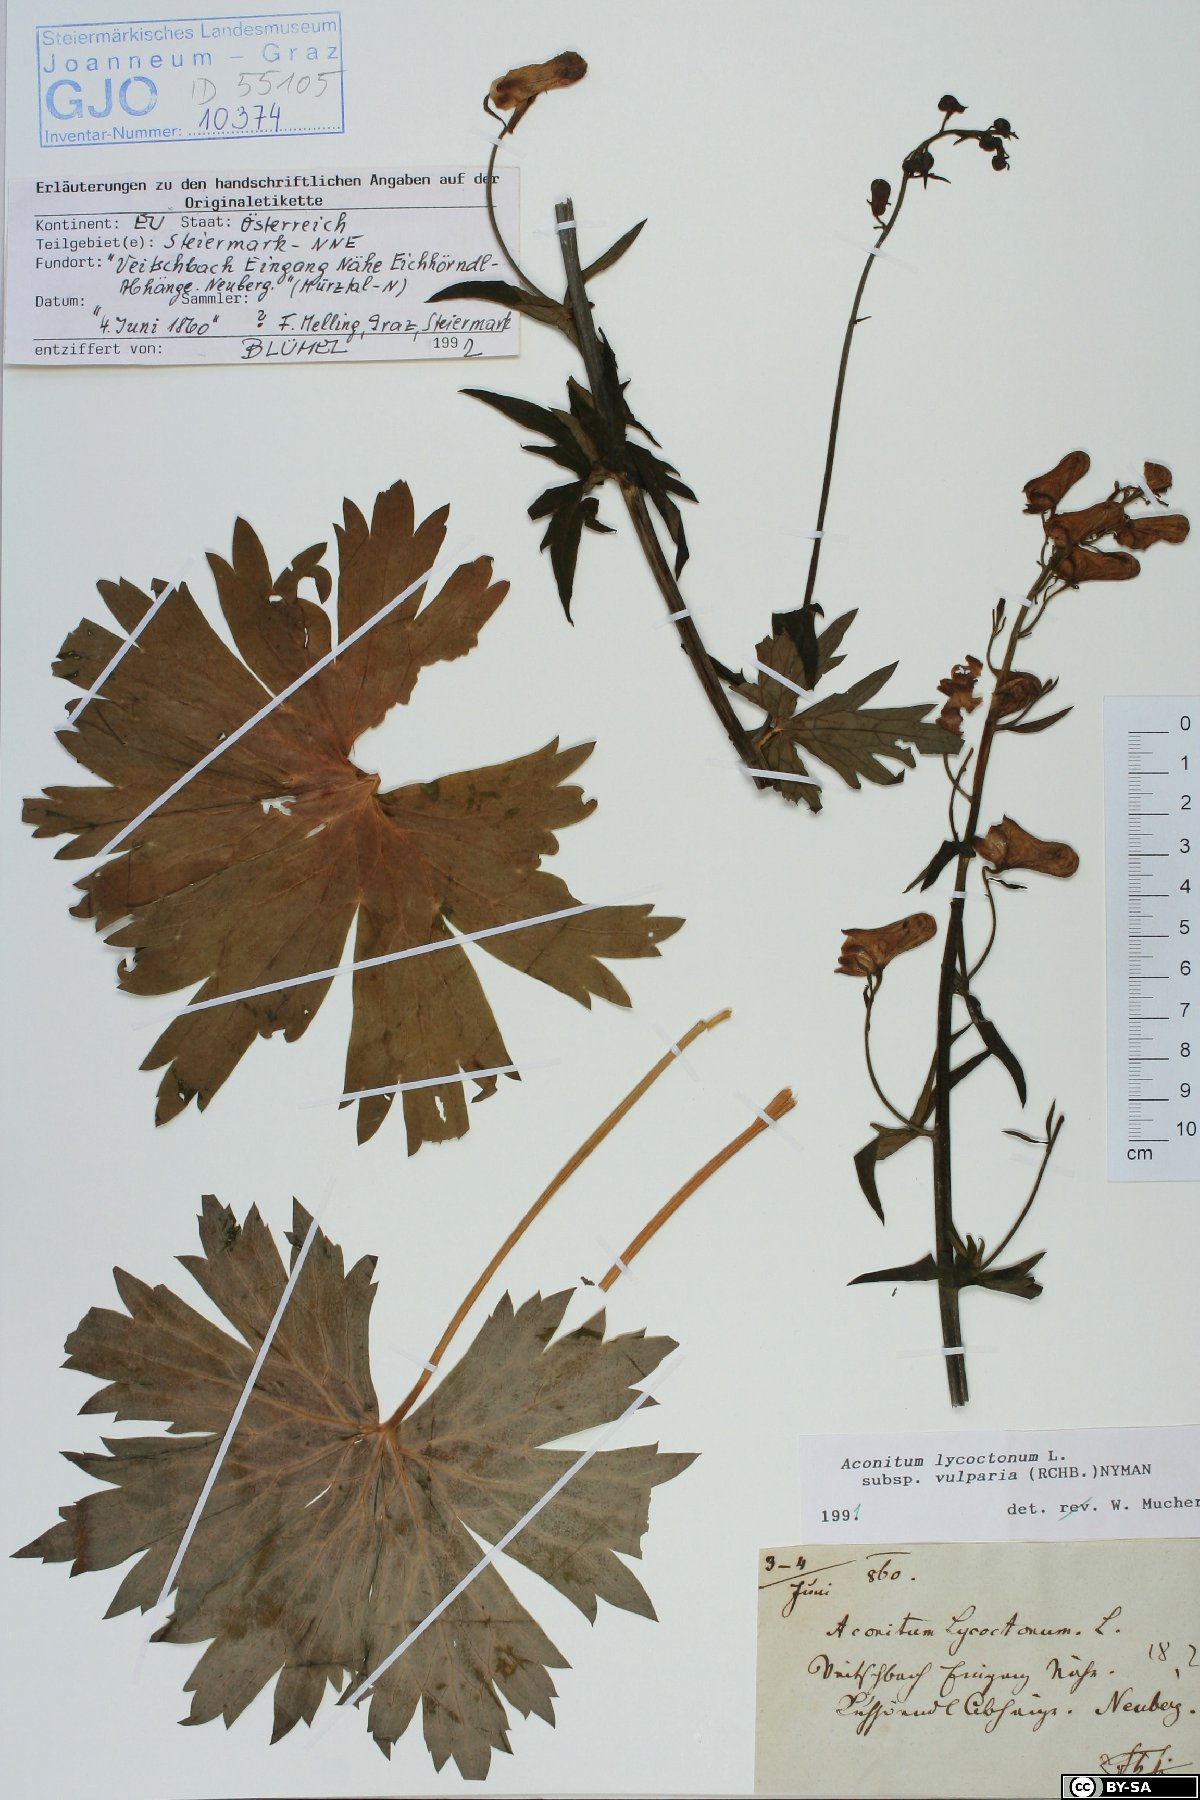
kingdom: Plantae
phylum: Tracheophyta
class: Magnoliopsida
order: Ranunculales
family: Ranunculaceae
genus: Aconitum
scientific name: Aconitum lycoctonum
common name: Wolf's-bane
